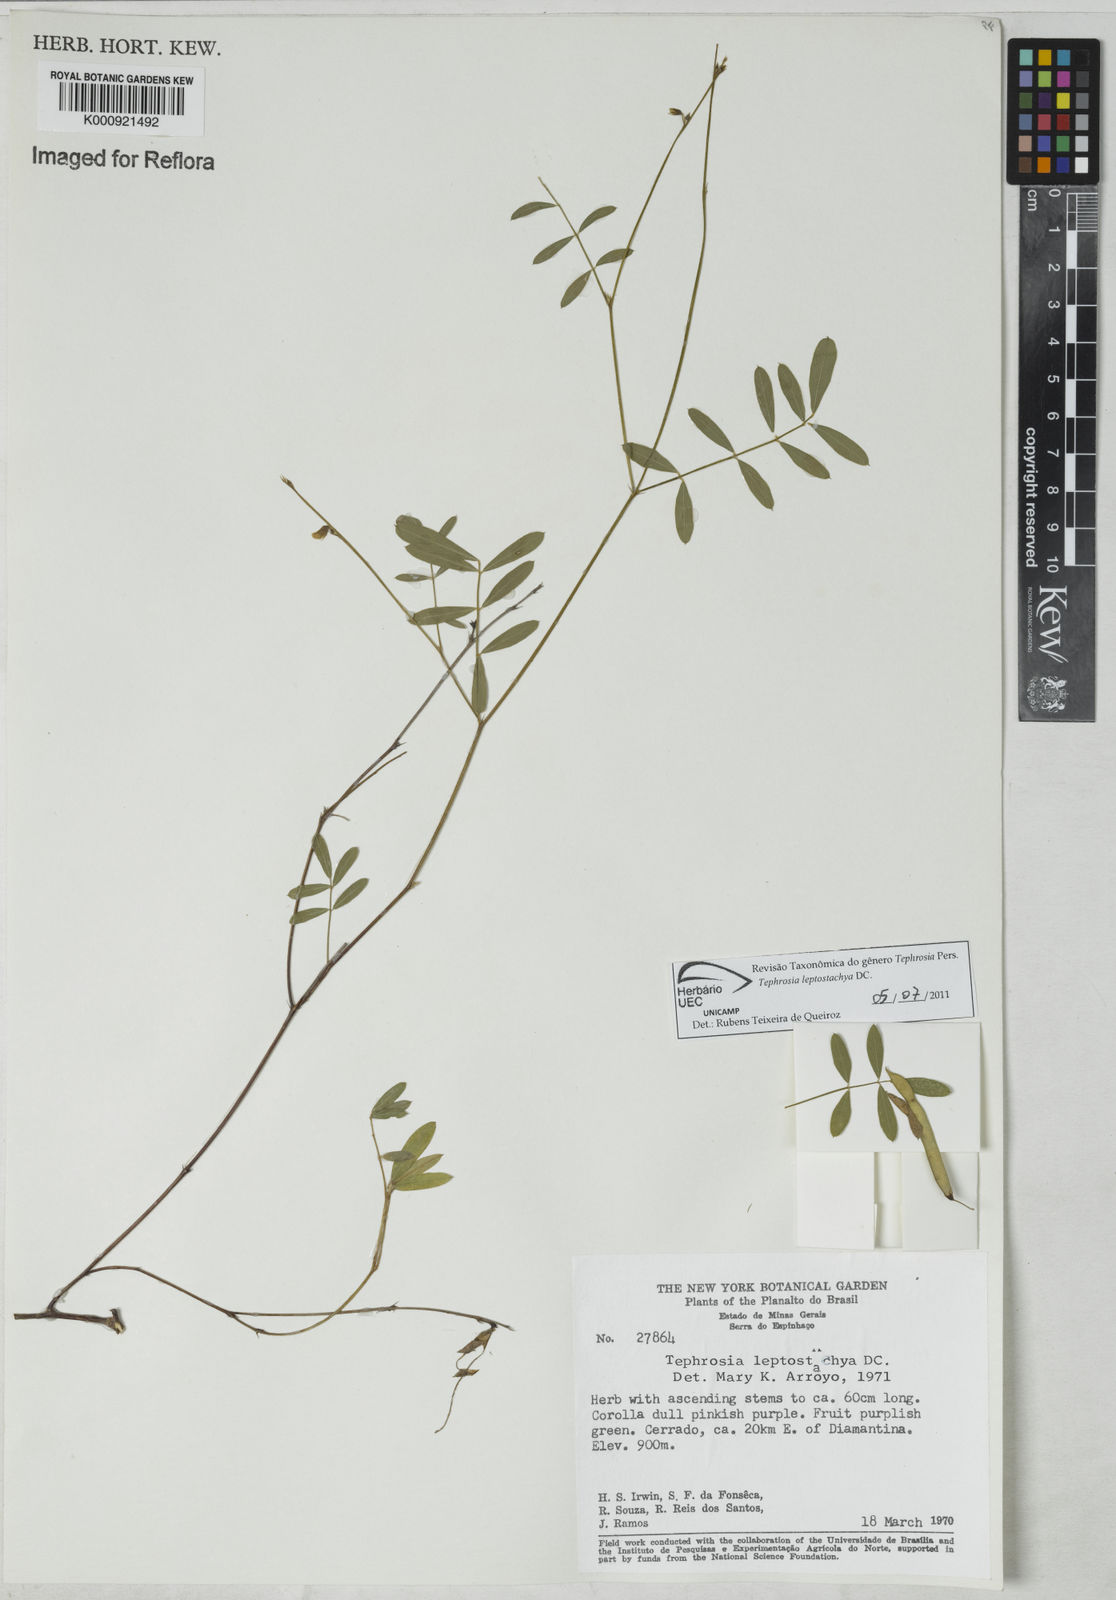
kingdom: Plantae
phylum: Tracheophyta
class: Magnoliopsida
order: Fabales
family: Fabaceae
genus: Tephrosia
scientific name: Tephrosia purpurea
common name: Fishpoison
